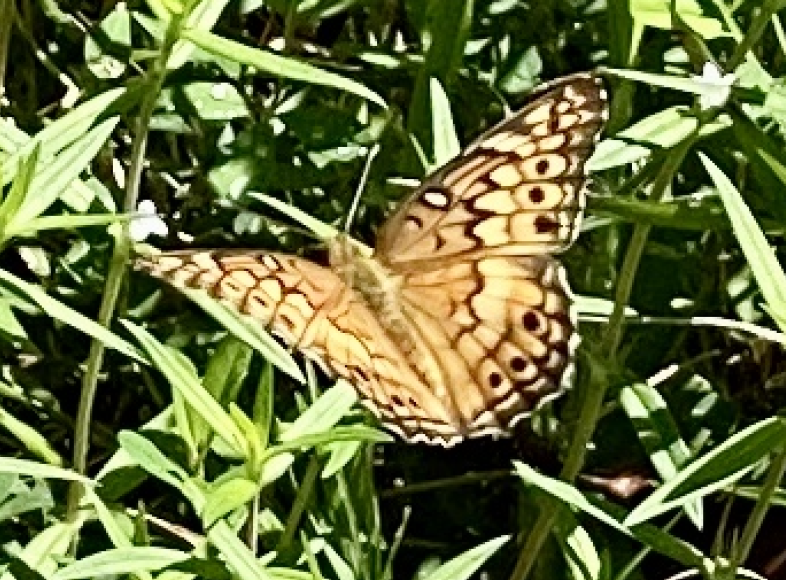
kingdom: Animalia
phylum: Arthropoda
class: Insecta
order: Lepidoptera
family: Nymphalidae
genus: Euptoieta
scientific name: Euptoieta claudia
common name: Variegated Fritillary
